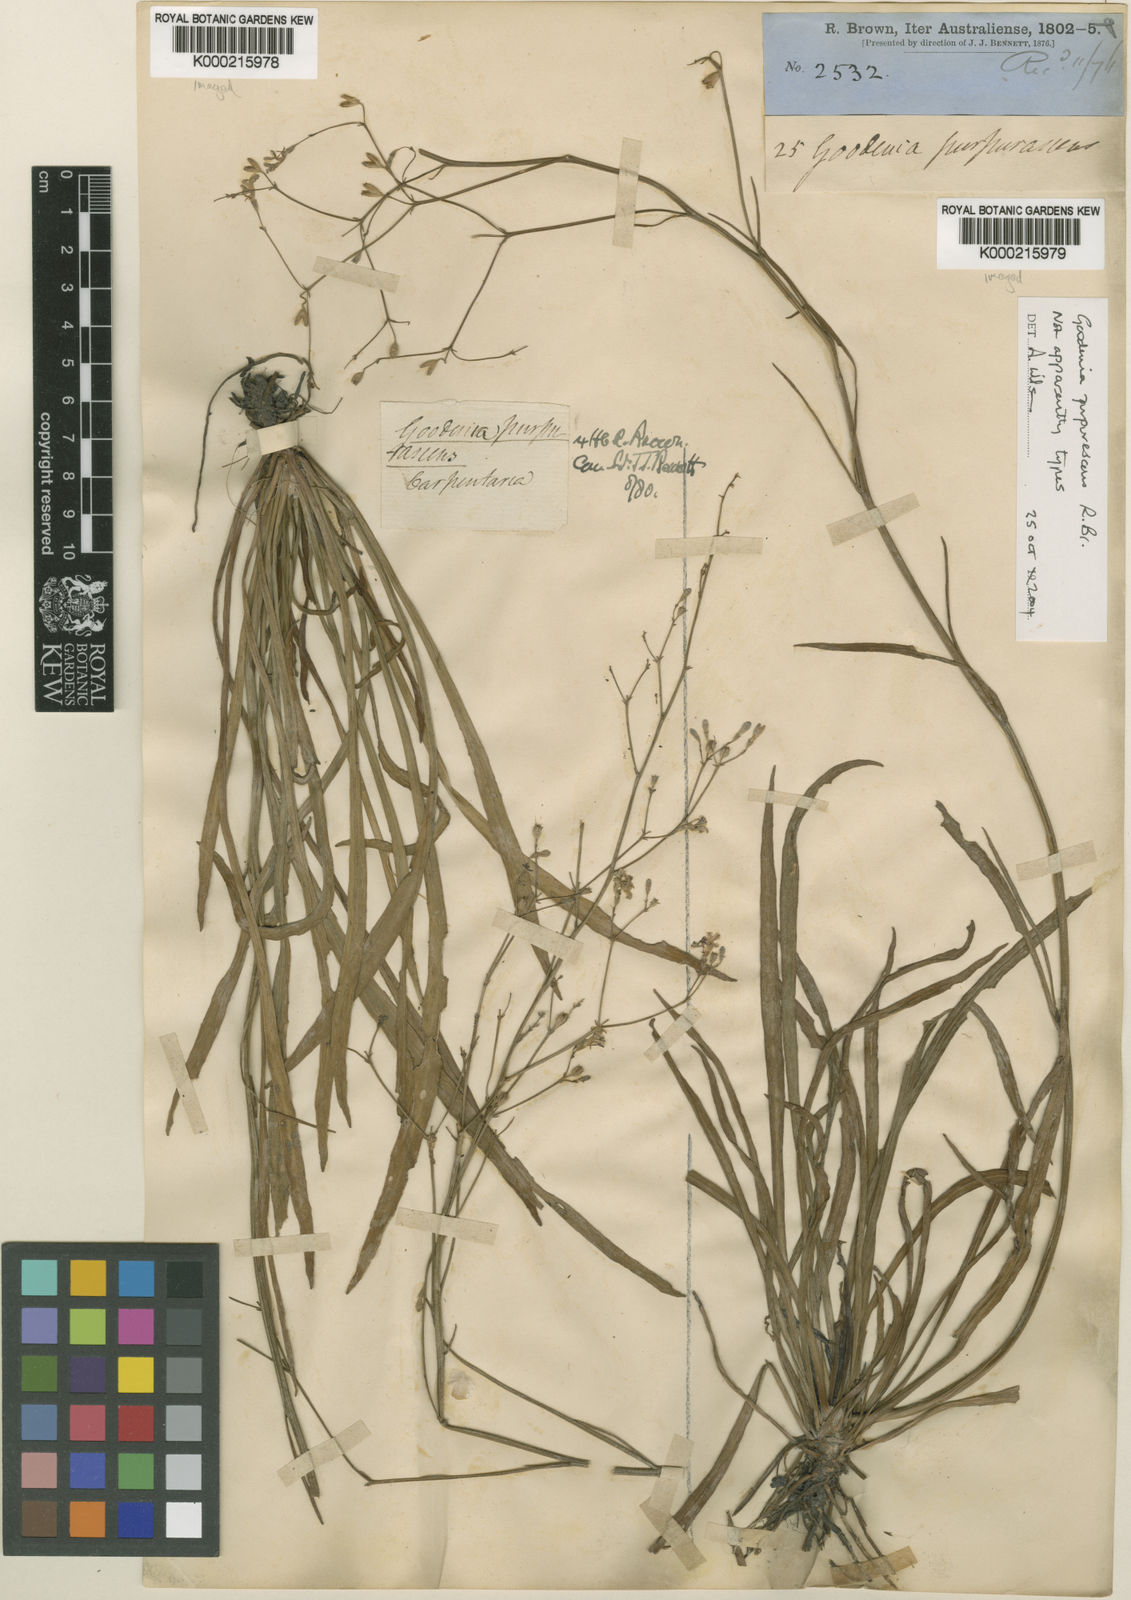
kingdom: Plantae
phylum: Tracheophyta
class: Magnoliopsida
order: Asterales
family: Goodeniaceae
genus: Goodenia
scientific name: Goodenia purpurascens
